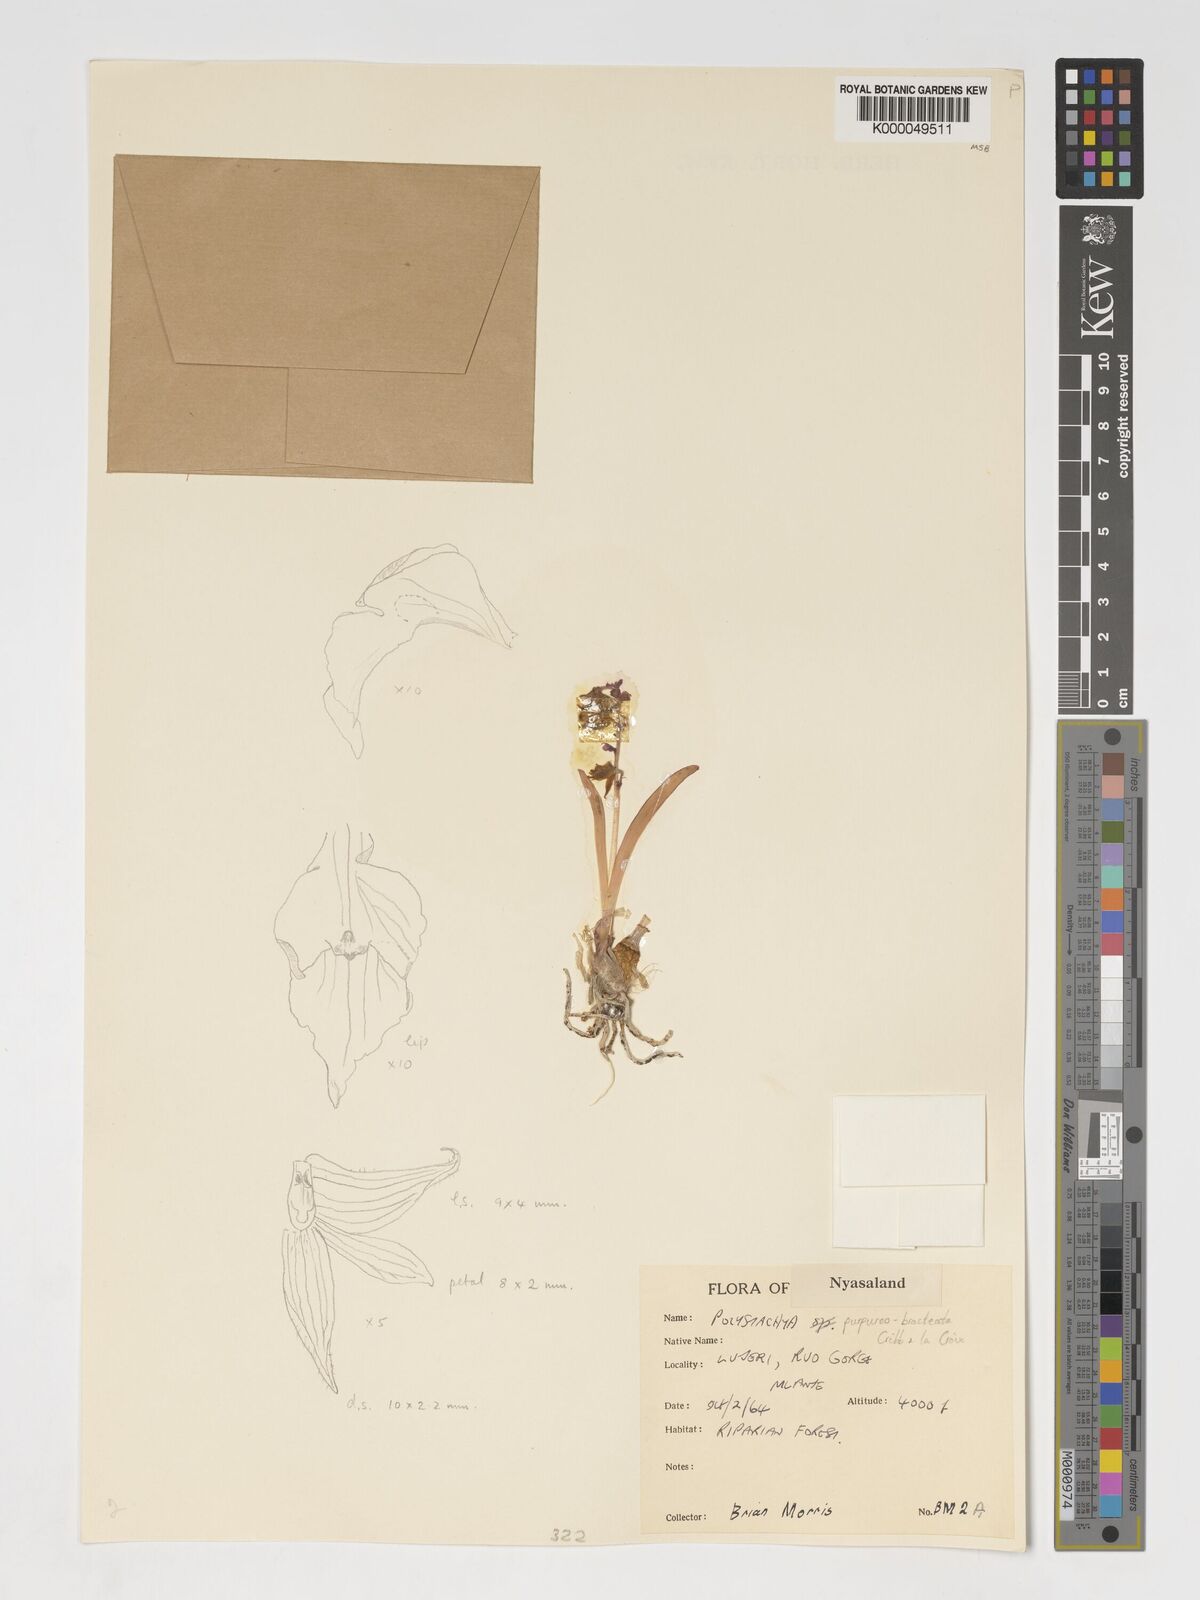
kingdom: Plantae
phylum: Tracheophyta
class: Liliopsida
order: Asparagales
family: Orchidaceae
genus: Polystachya
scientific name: Polystachya purpureobracteata
